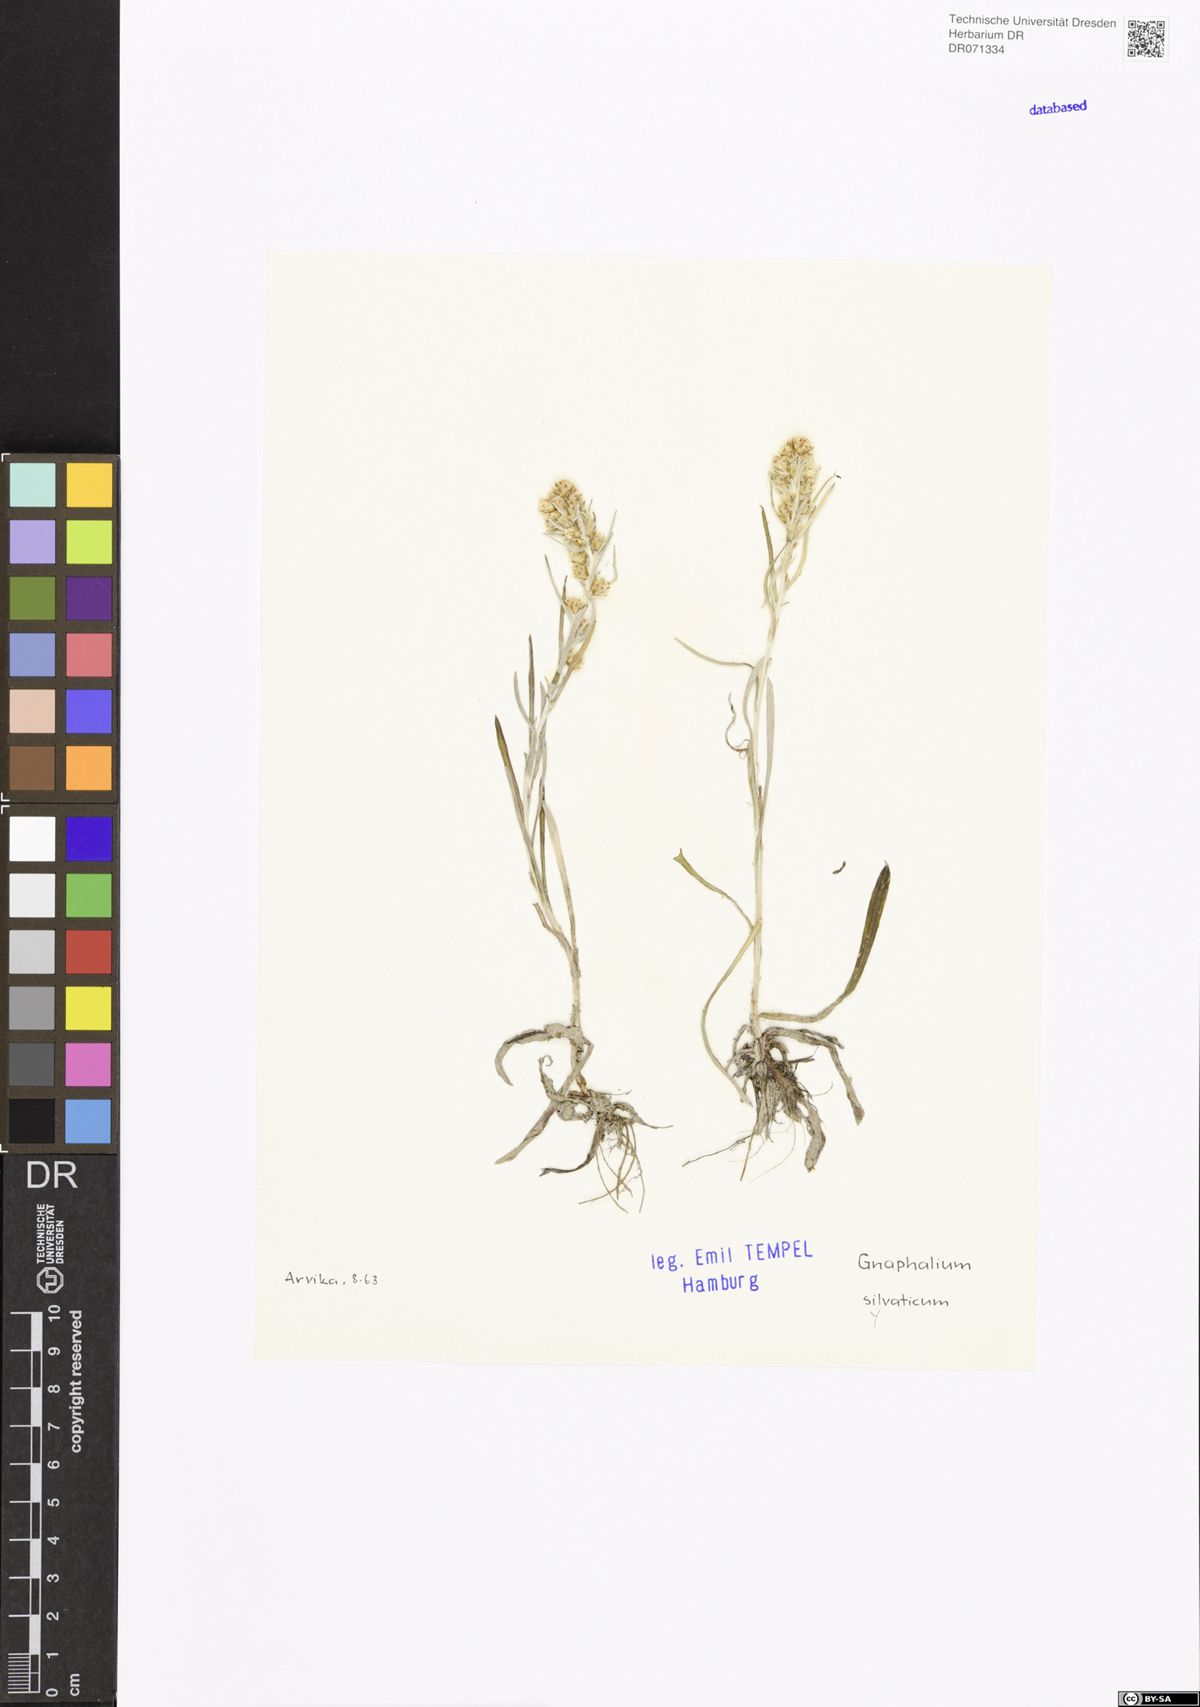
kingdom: Plantae
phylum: Tracheophyta
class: Magnoliopsida
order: Asterales
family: Asteraceae
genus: Omalotheca
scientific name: Omalotheca sylvatica
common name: Heath cudweed
